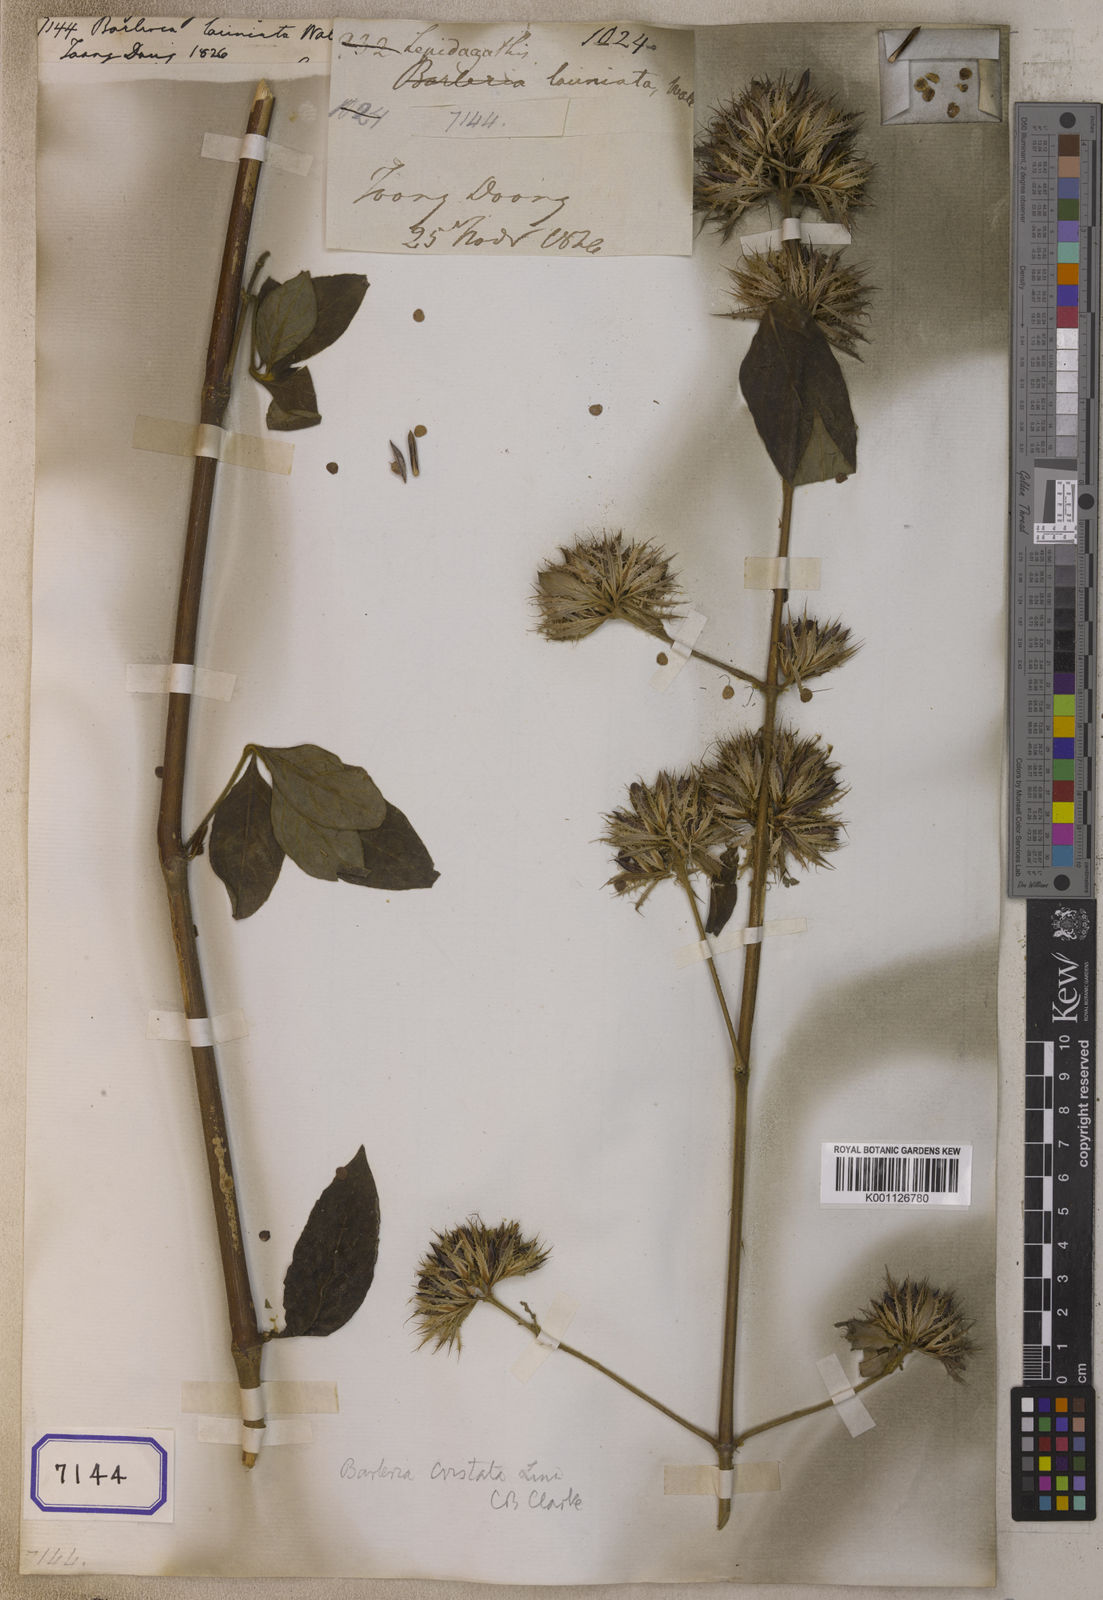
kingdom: Plantae
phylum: Tracheophyta
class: Magnoliopsida
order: Lamiales
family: Acanthaceae
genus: Barleria
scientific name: Barleria cristata
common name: Crested philippine violet
